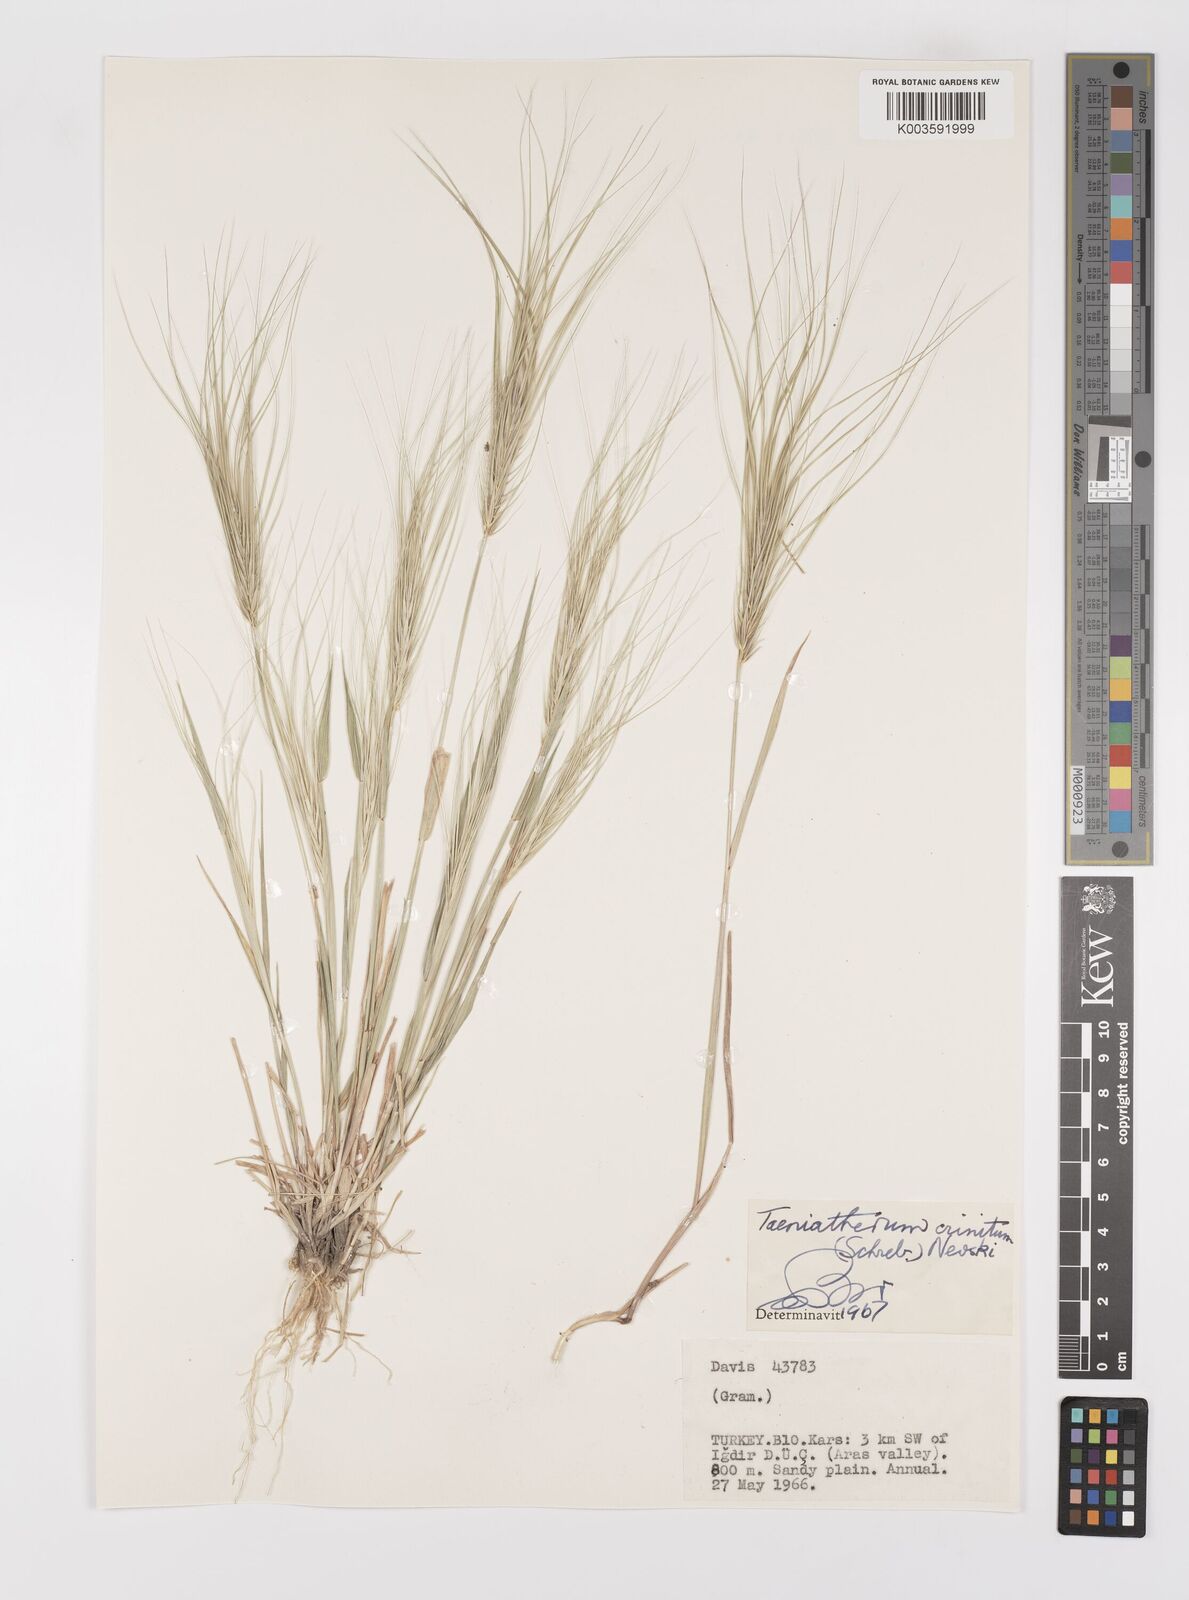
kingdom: Plantae
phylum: Tracheophyta
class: Liliopsida
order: Poales
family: Poaceae
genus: Taeniatherum
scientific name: Taeniatherum caput-medusae
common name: Medusahead
